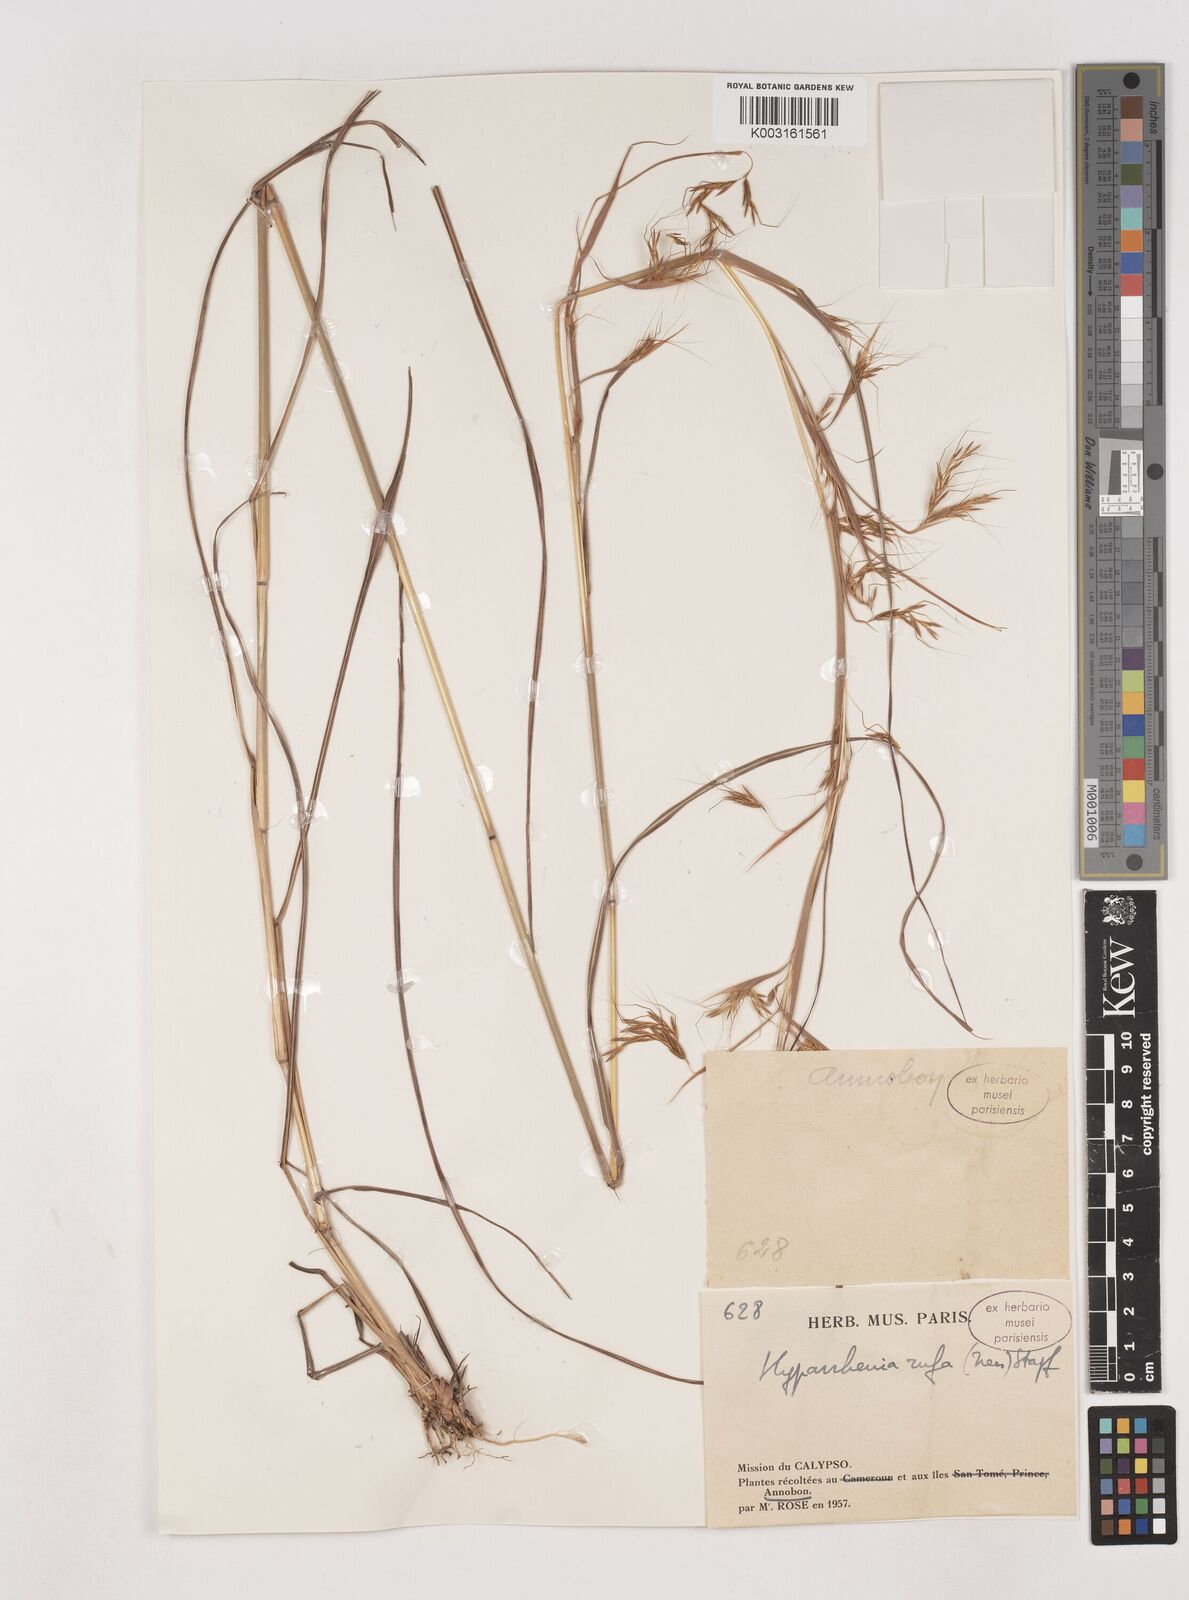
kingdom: Plantae
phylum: Tracheophyta
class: Liliopsida
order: Poales
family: Poaceae
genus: Hyparrhenia
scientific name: Hyparrhenia rufa
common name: Jaraguagrass
